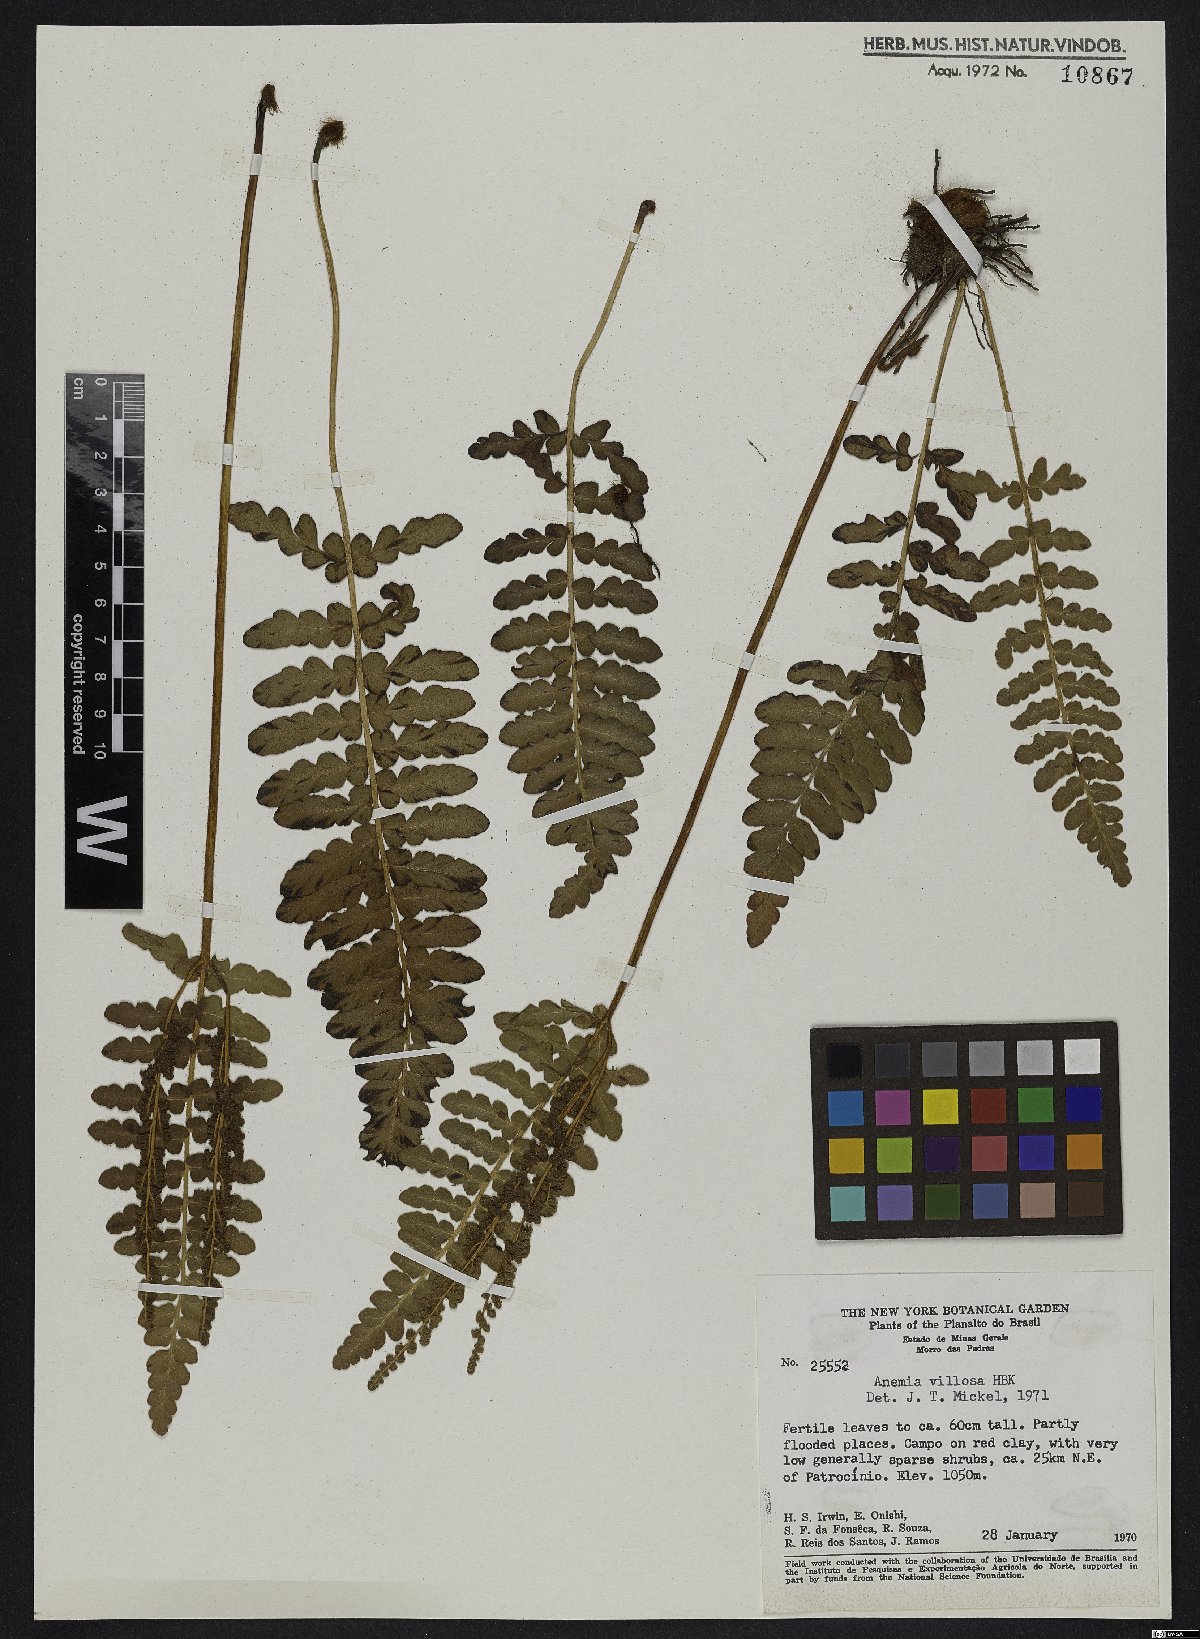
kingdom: Plantae
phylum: Tracheophyta
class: Polypodiopsida
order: Schizaeales
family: Anemiaceae
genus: Anemia
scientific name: Anemia villosa
